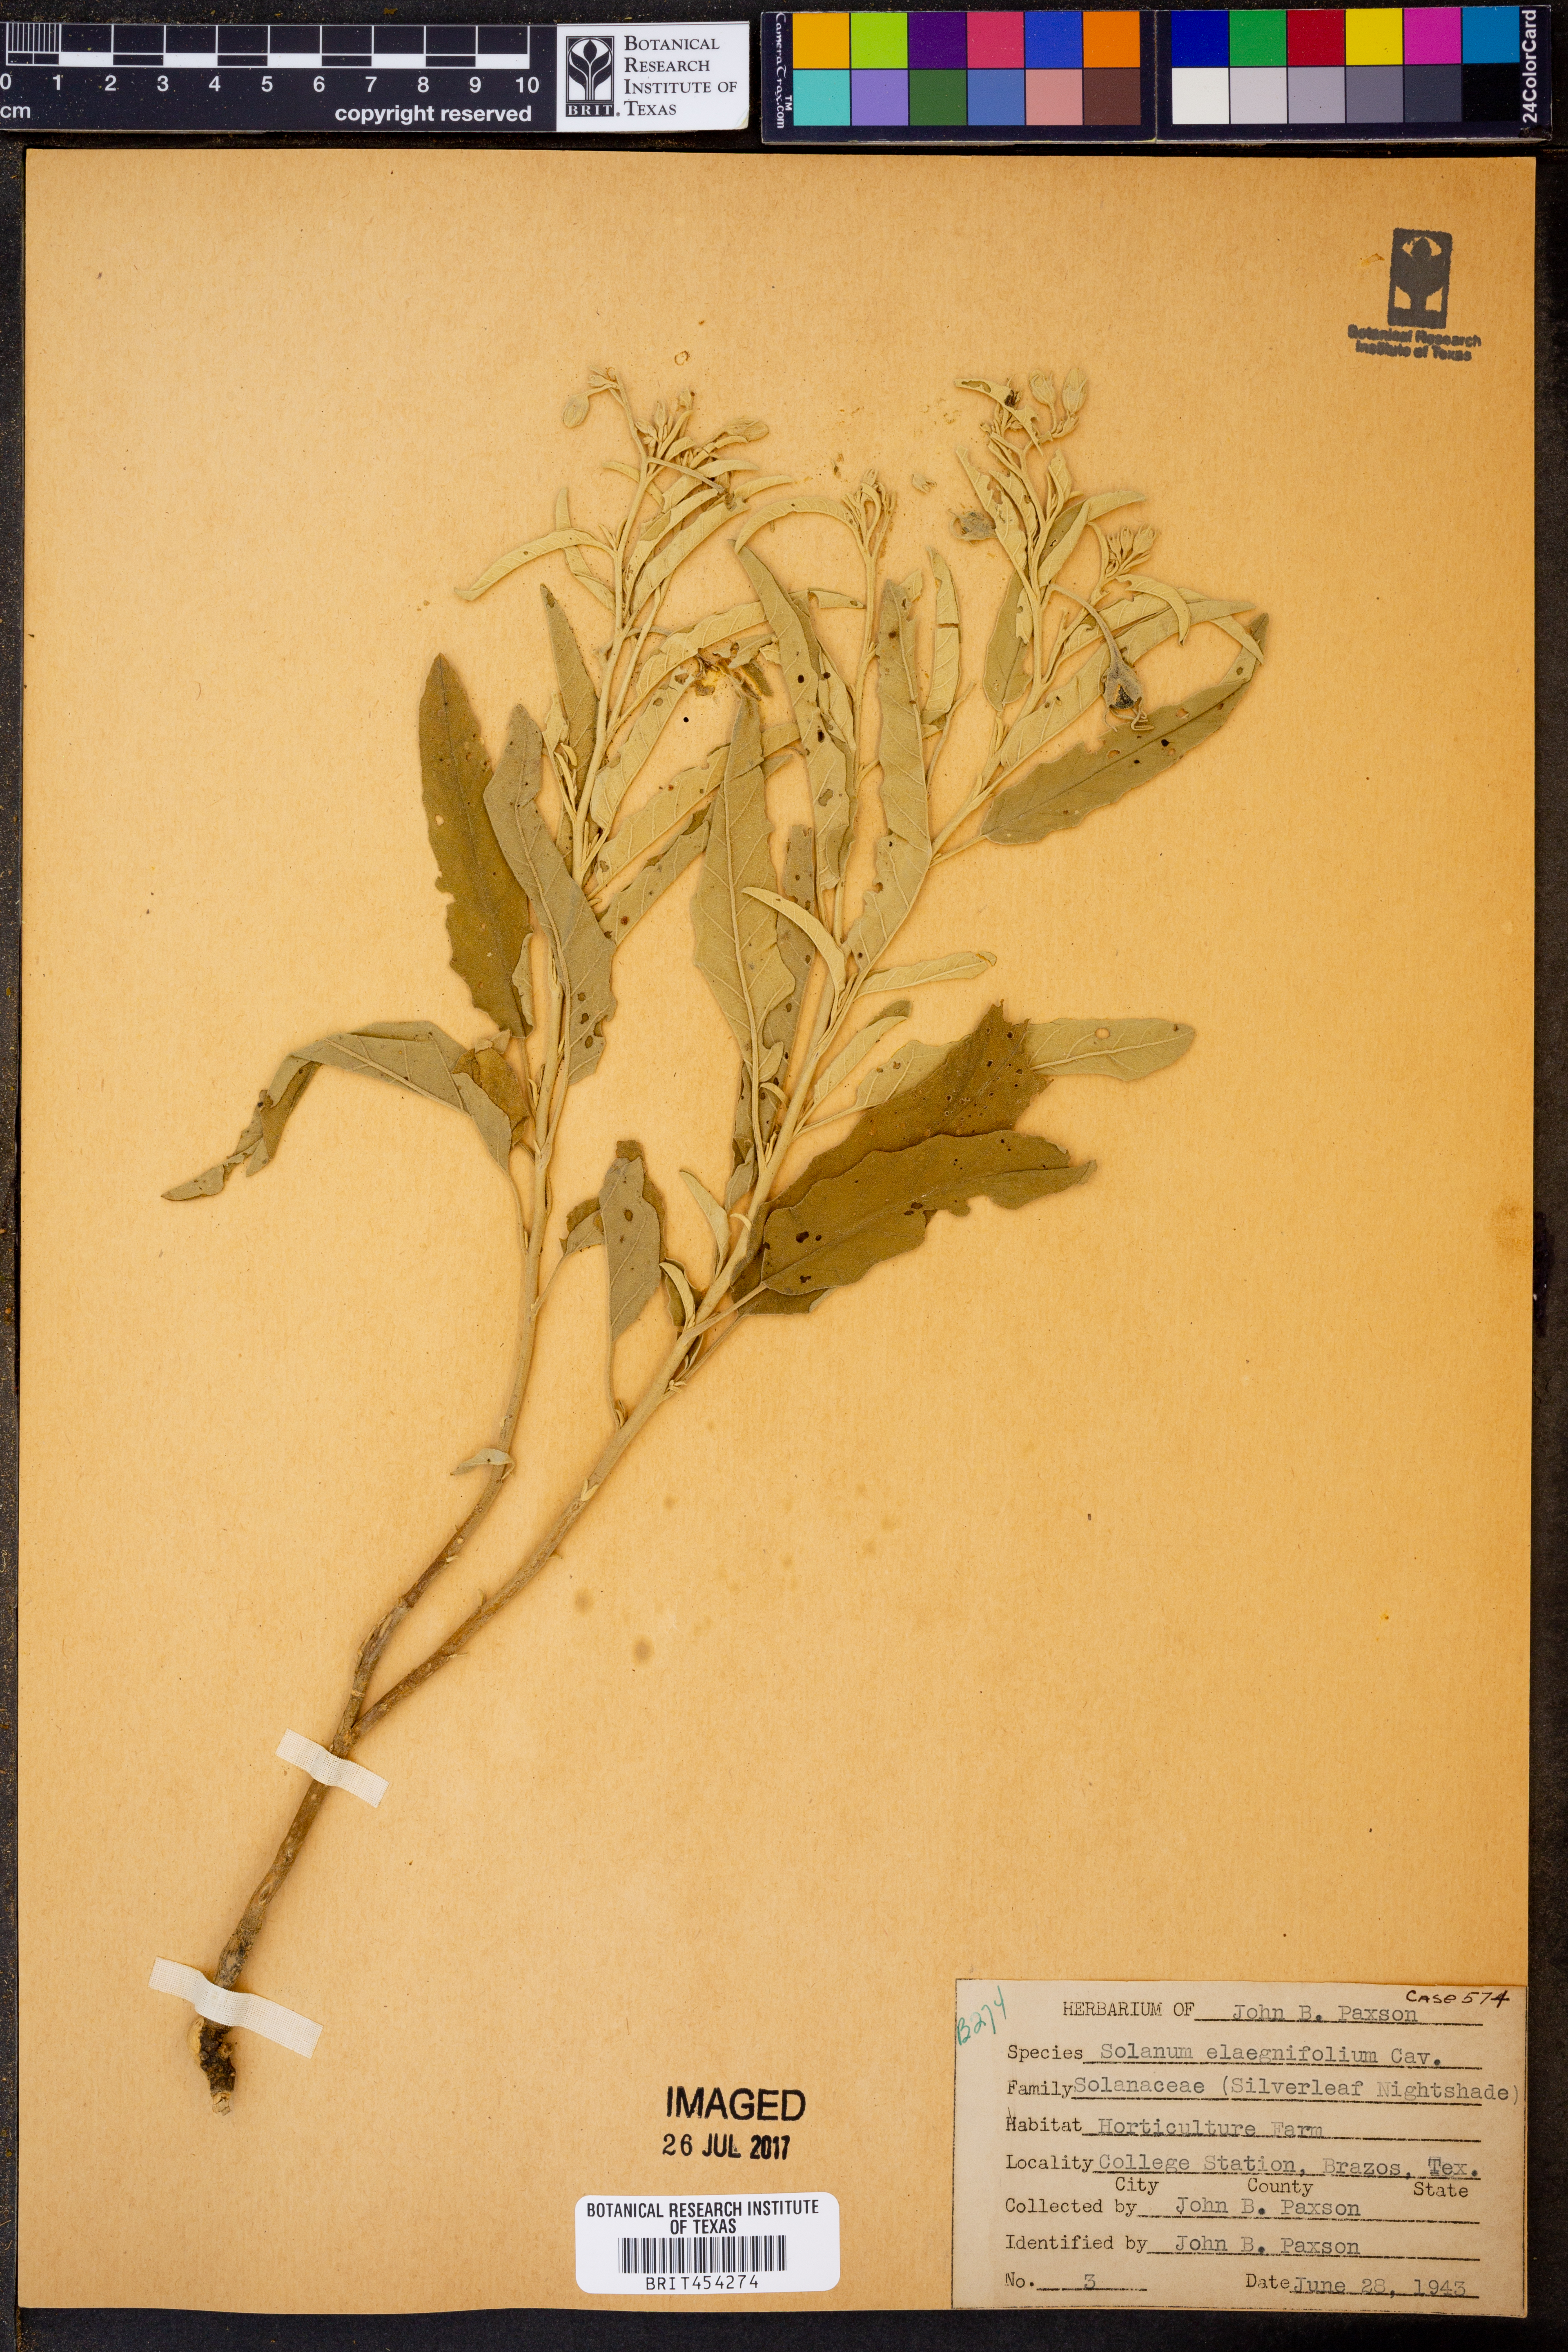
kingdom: Plantae
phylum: Tracheophyta
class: Magnoliopsida
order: Solanales
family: Solanaceae
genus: Solanum
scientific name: Solanum elaeagnifolium
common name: Silverleaf nightshade
